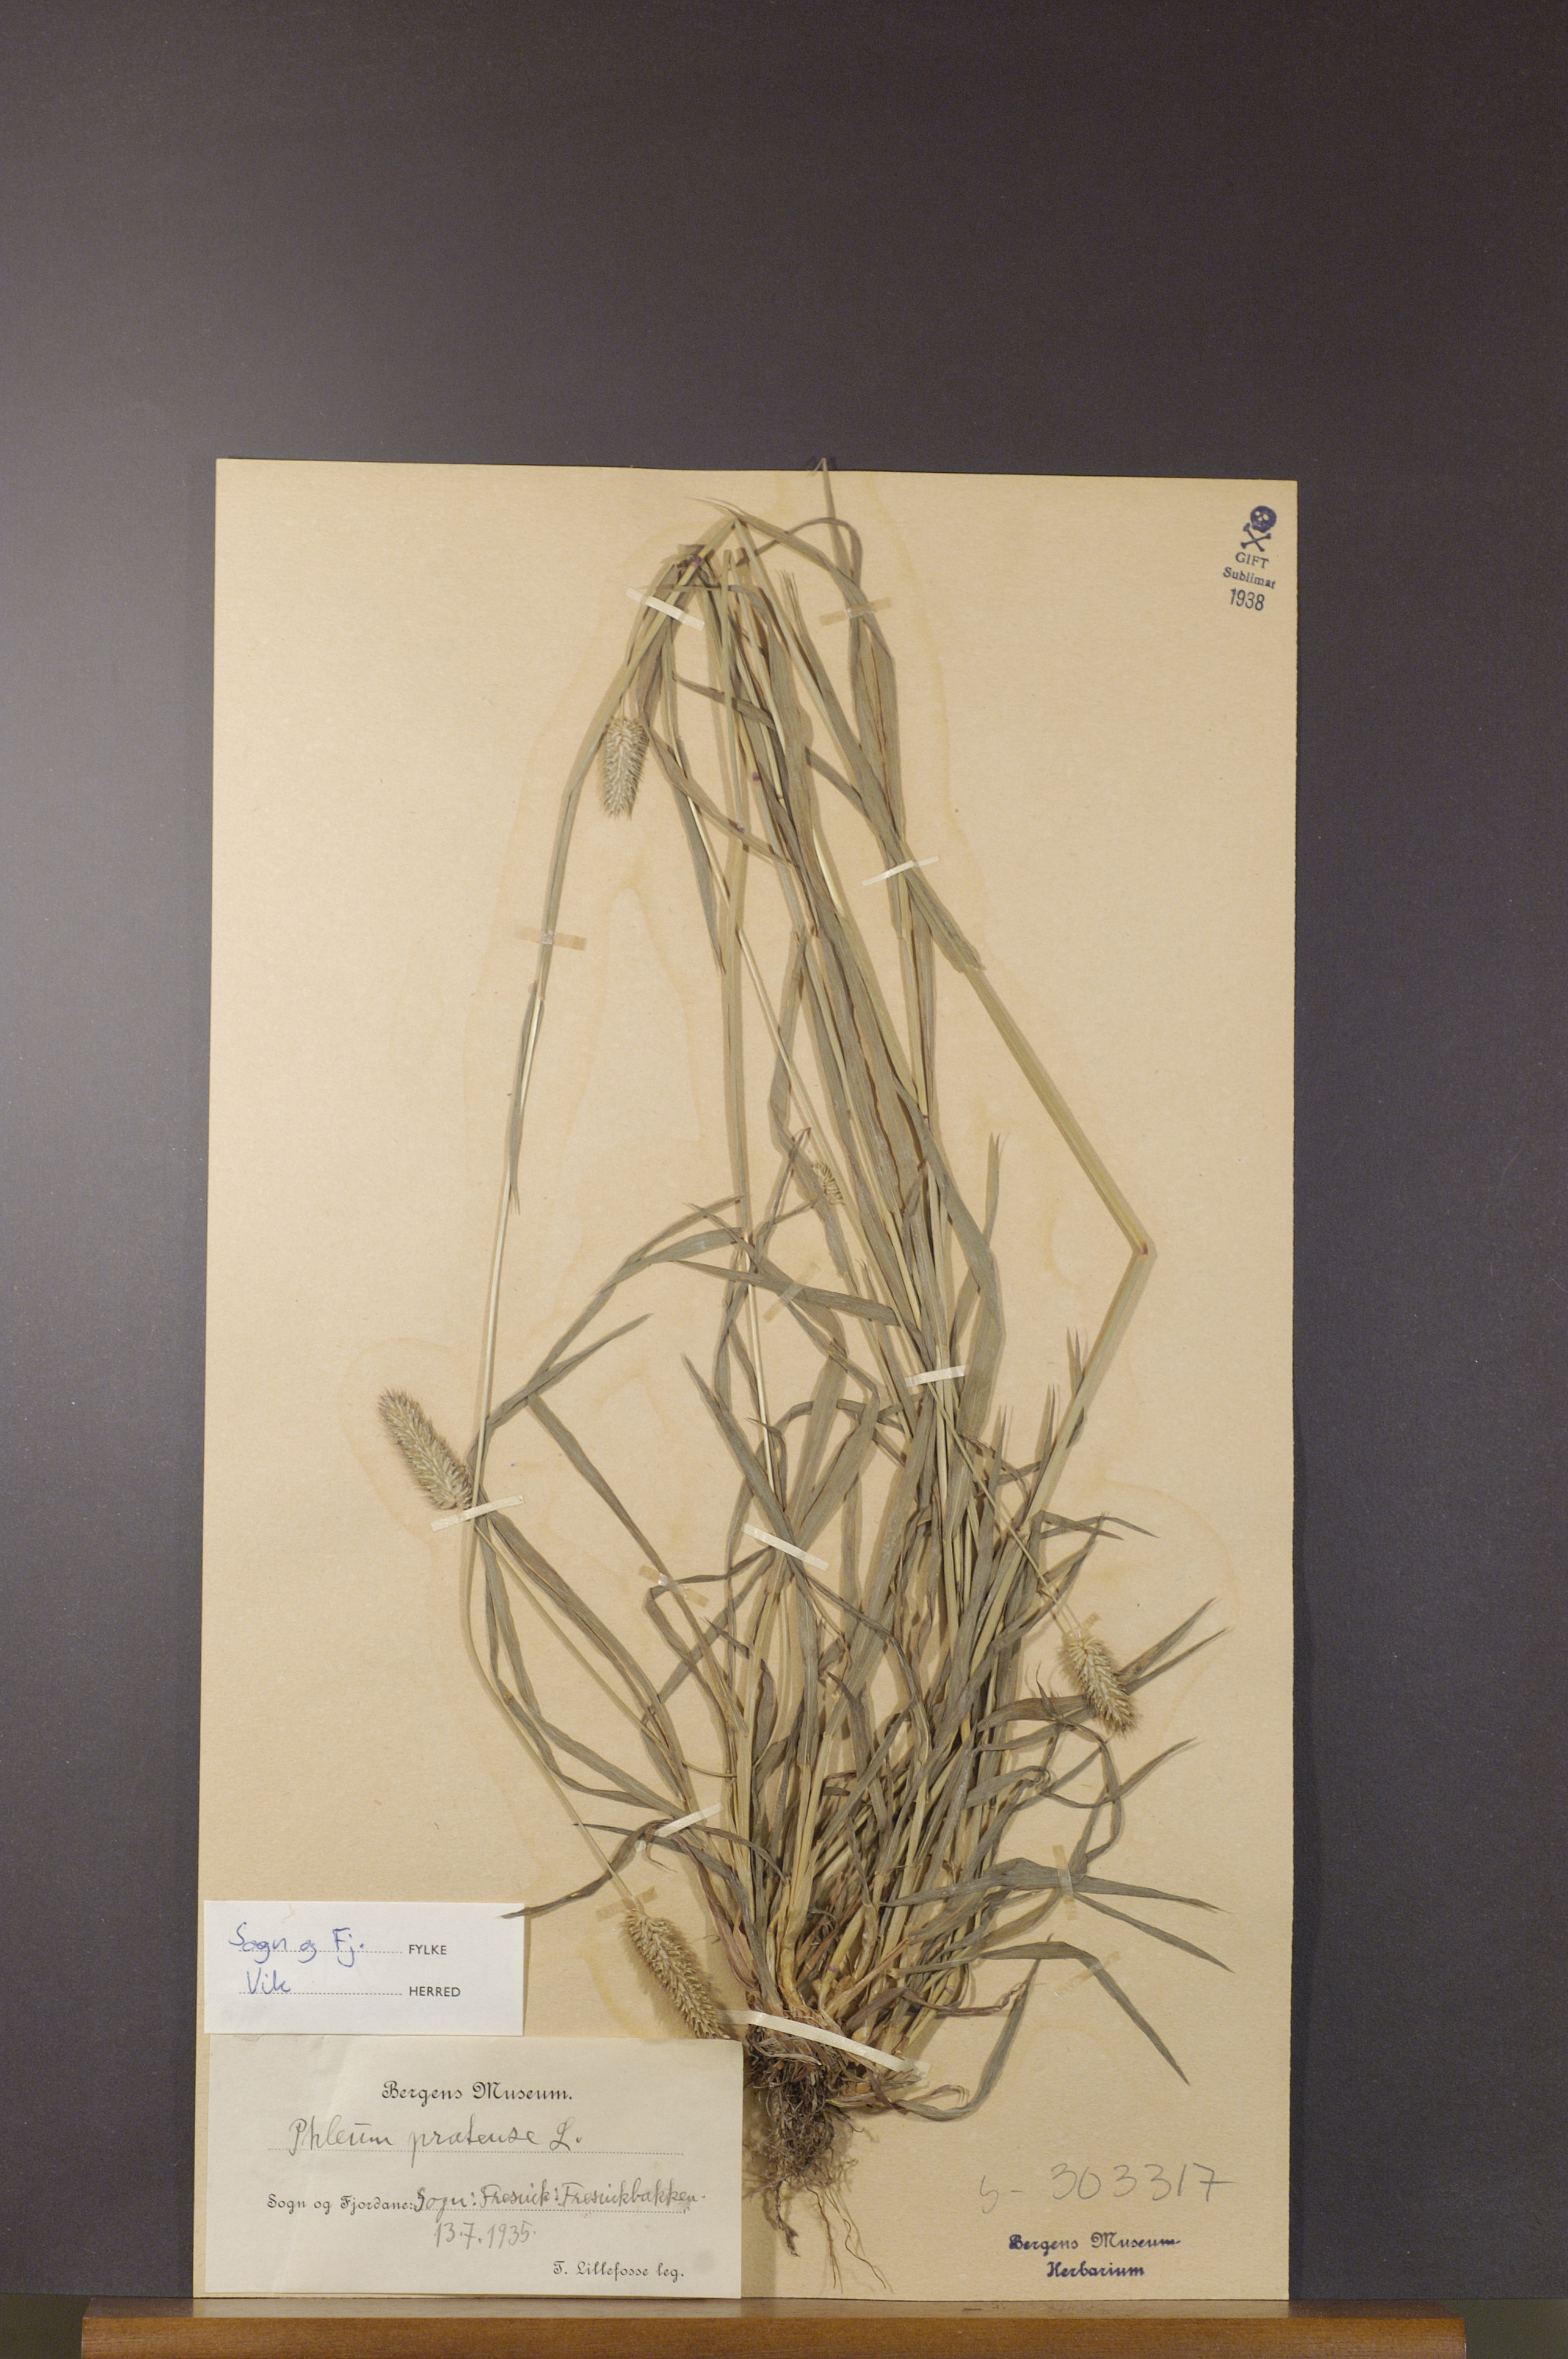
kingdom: Plantae
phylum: Tracheophyta
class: Liliopsida
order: Poales
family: Poaceae
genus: Phleum
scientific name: Phleum pratense
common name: Timothy grass
